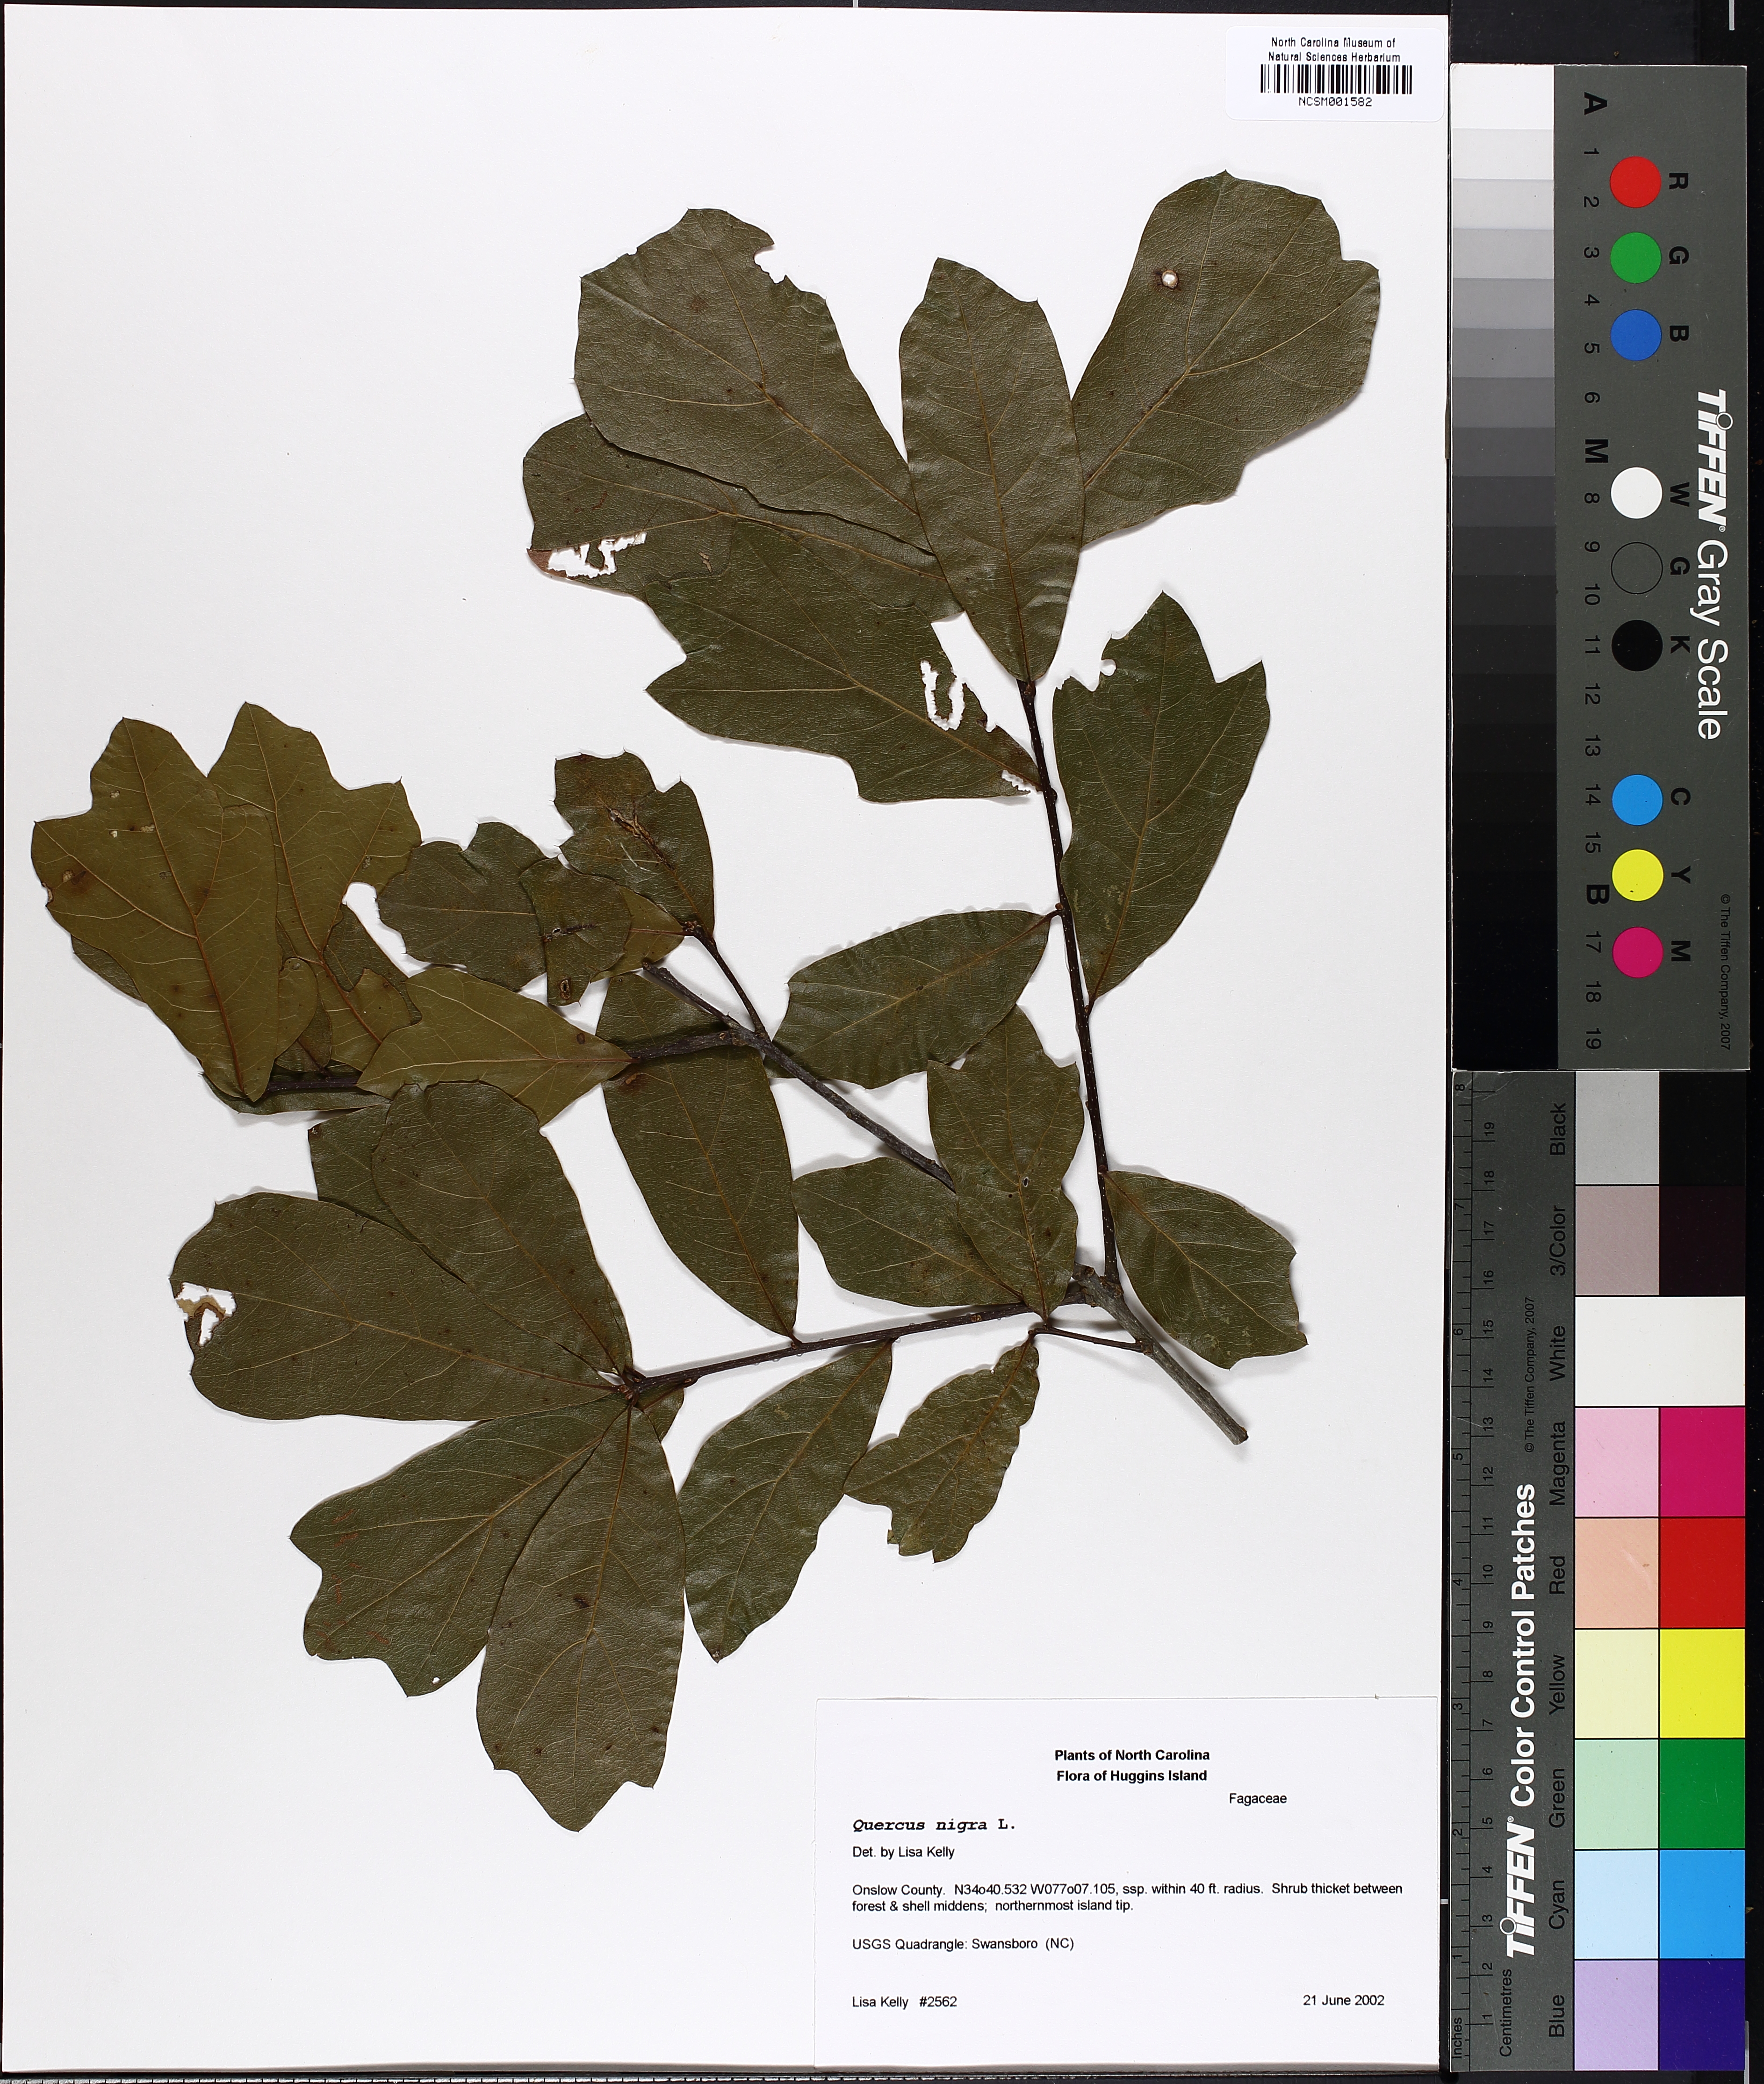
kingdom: Plantae
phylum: Tracheophyta
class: Magnoliopsida
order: Fagales
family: Fagaceae
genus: Quercus
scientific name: Quercus nigra
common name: Water oak
